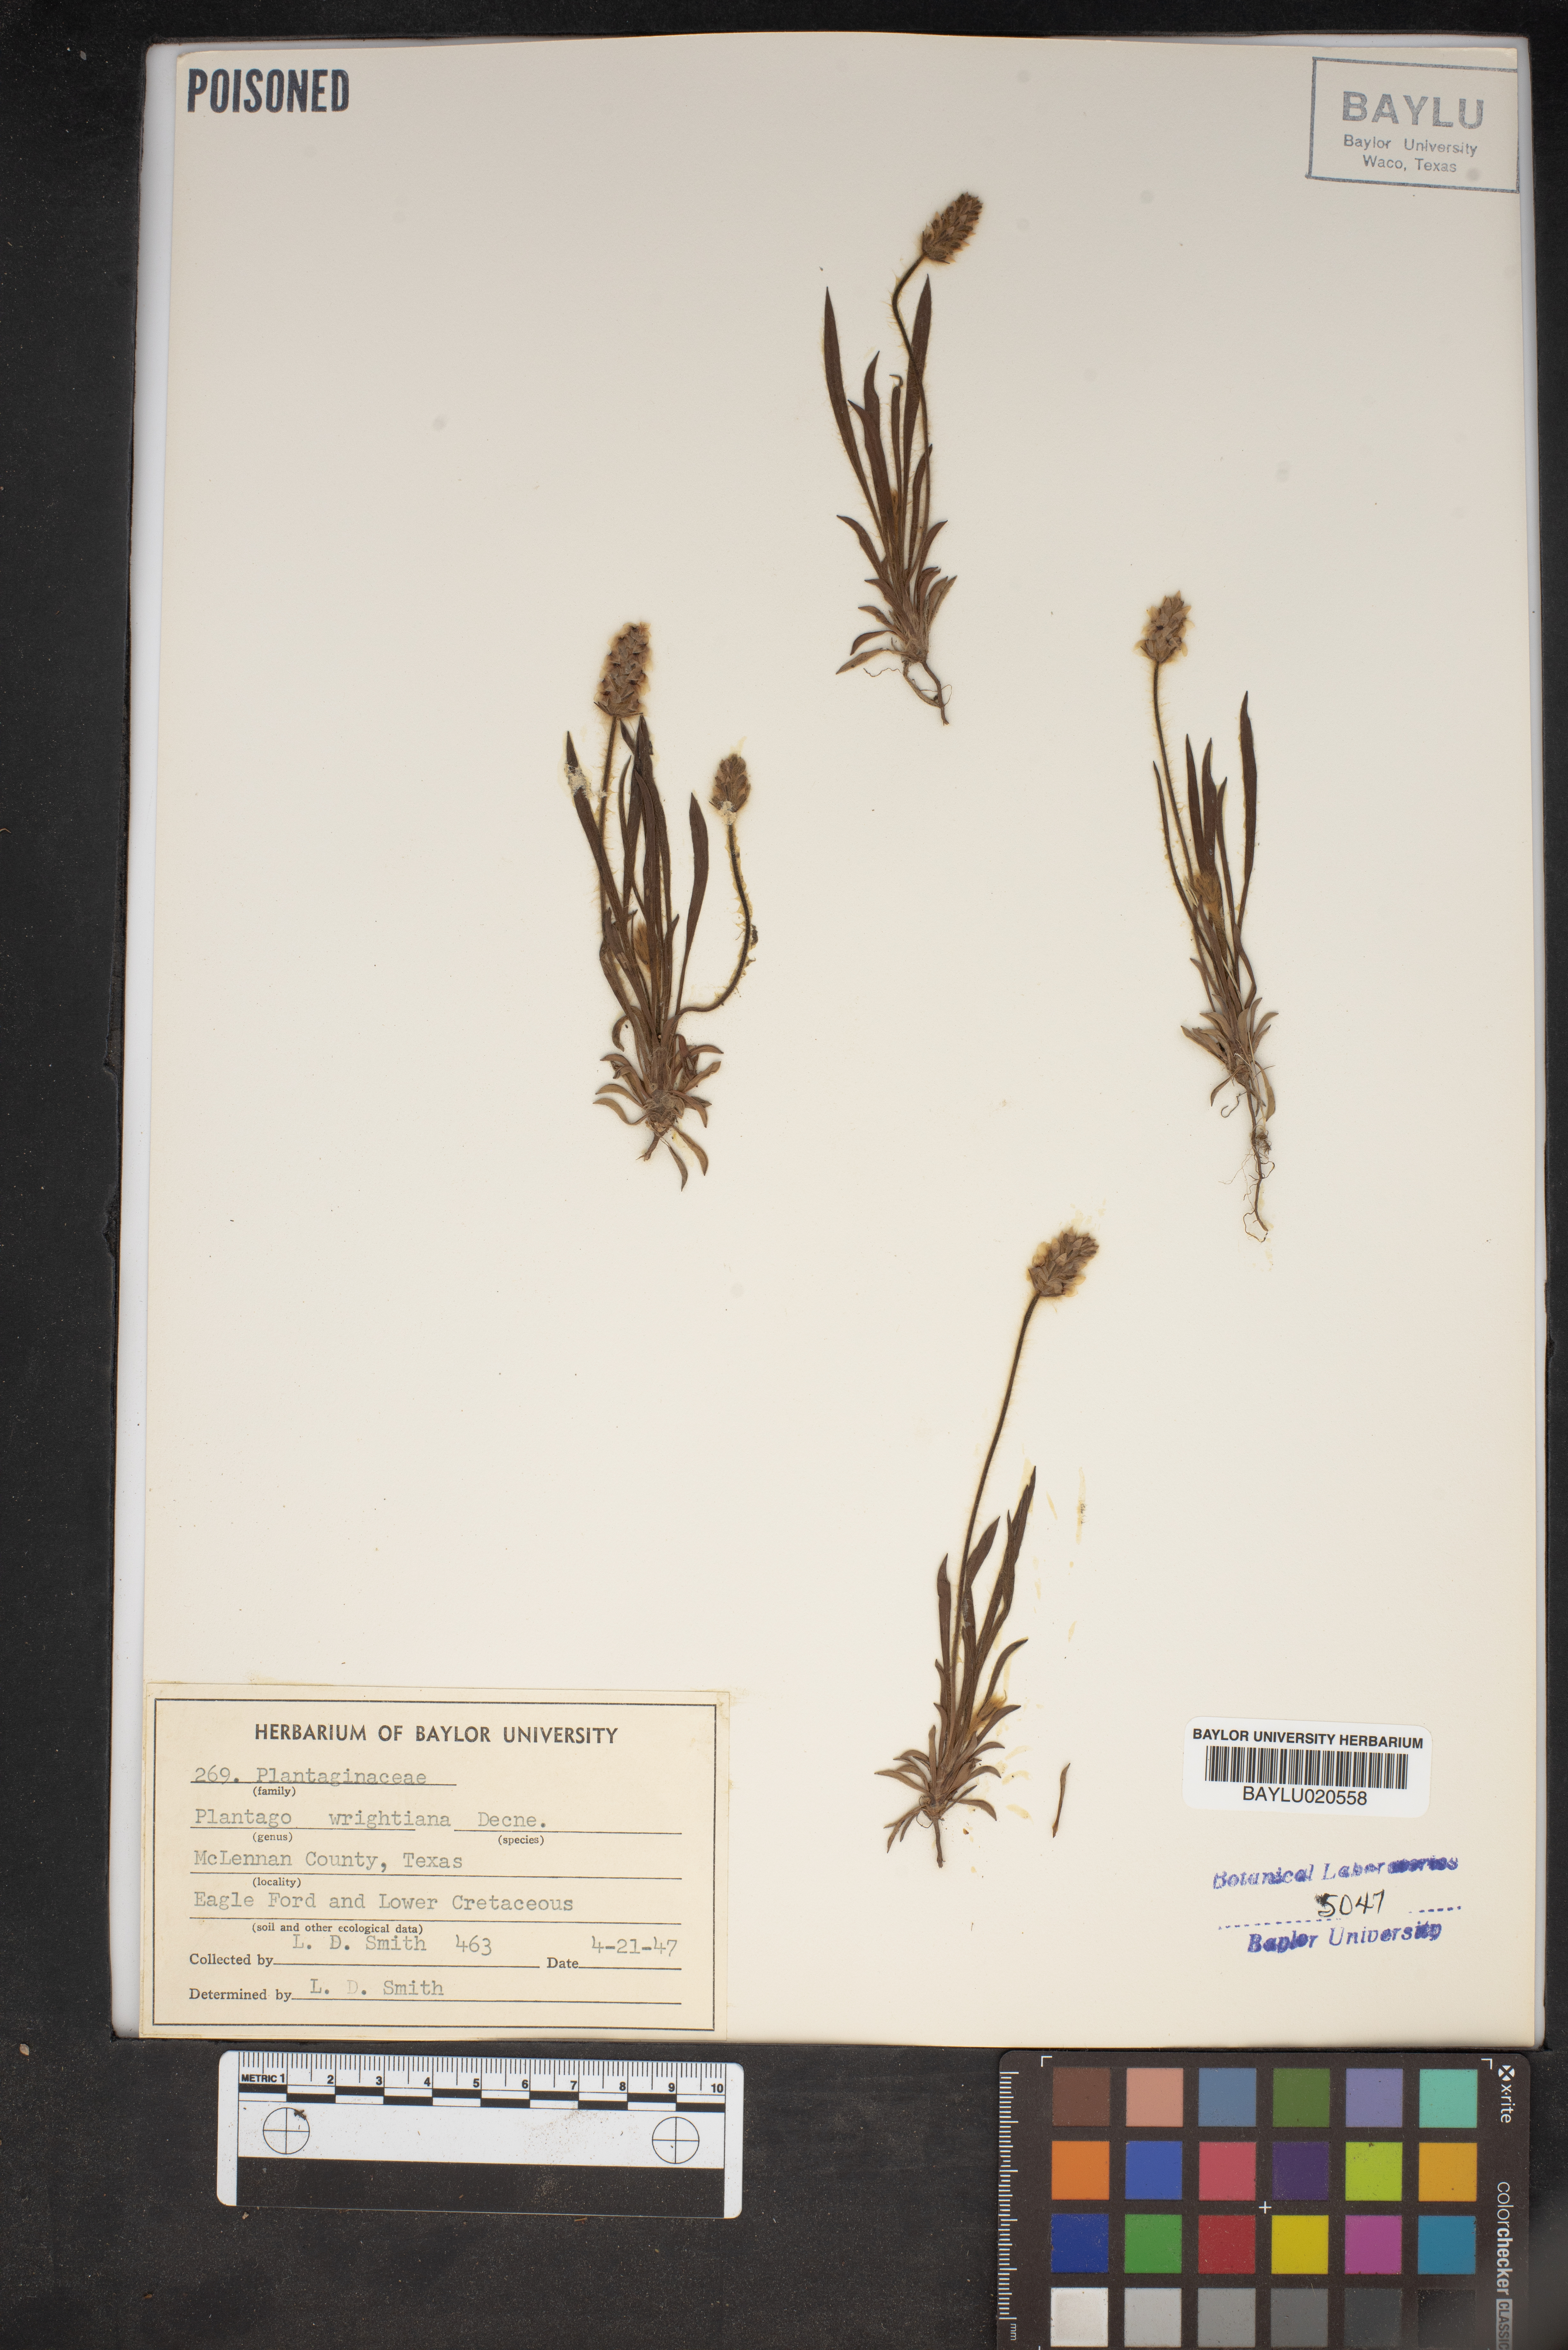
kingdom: Plantae
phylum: Tracheophyta
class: Magnoliopsida
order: Lamiales
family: Plantaginaceae
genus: Plantago
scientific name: Plantago wrightiana
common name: Wright's plantain
